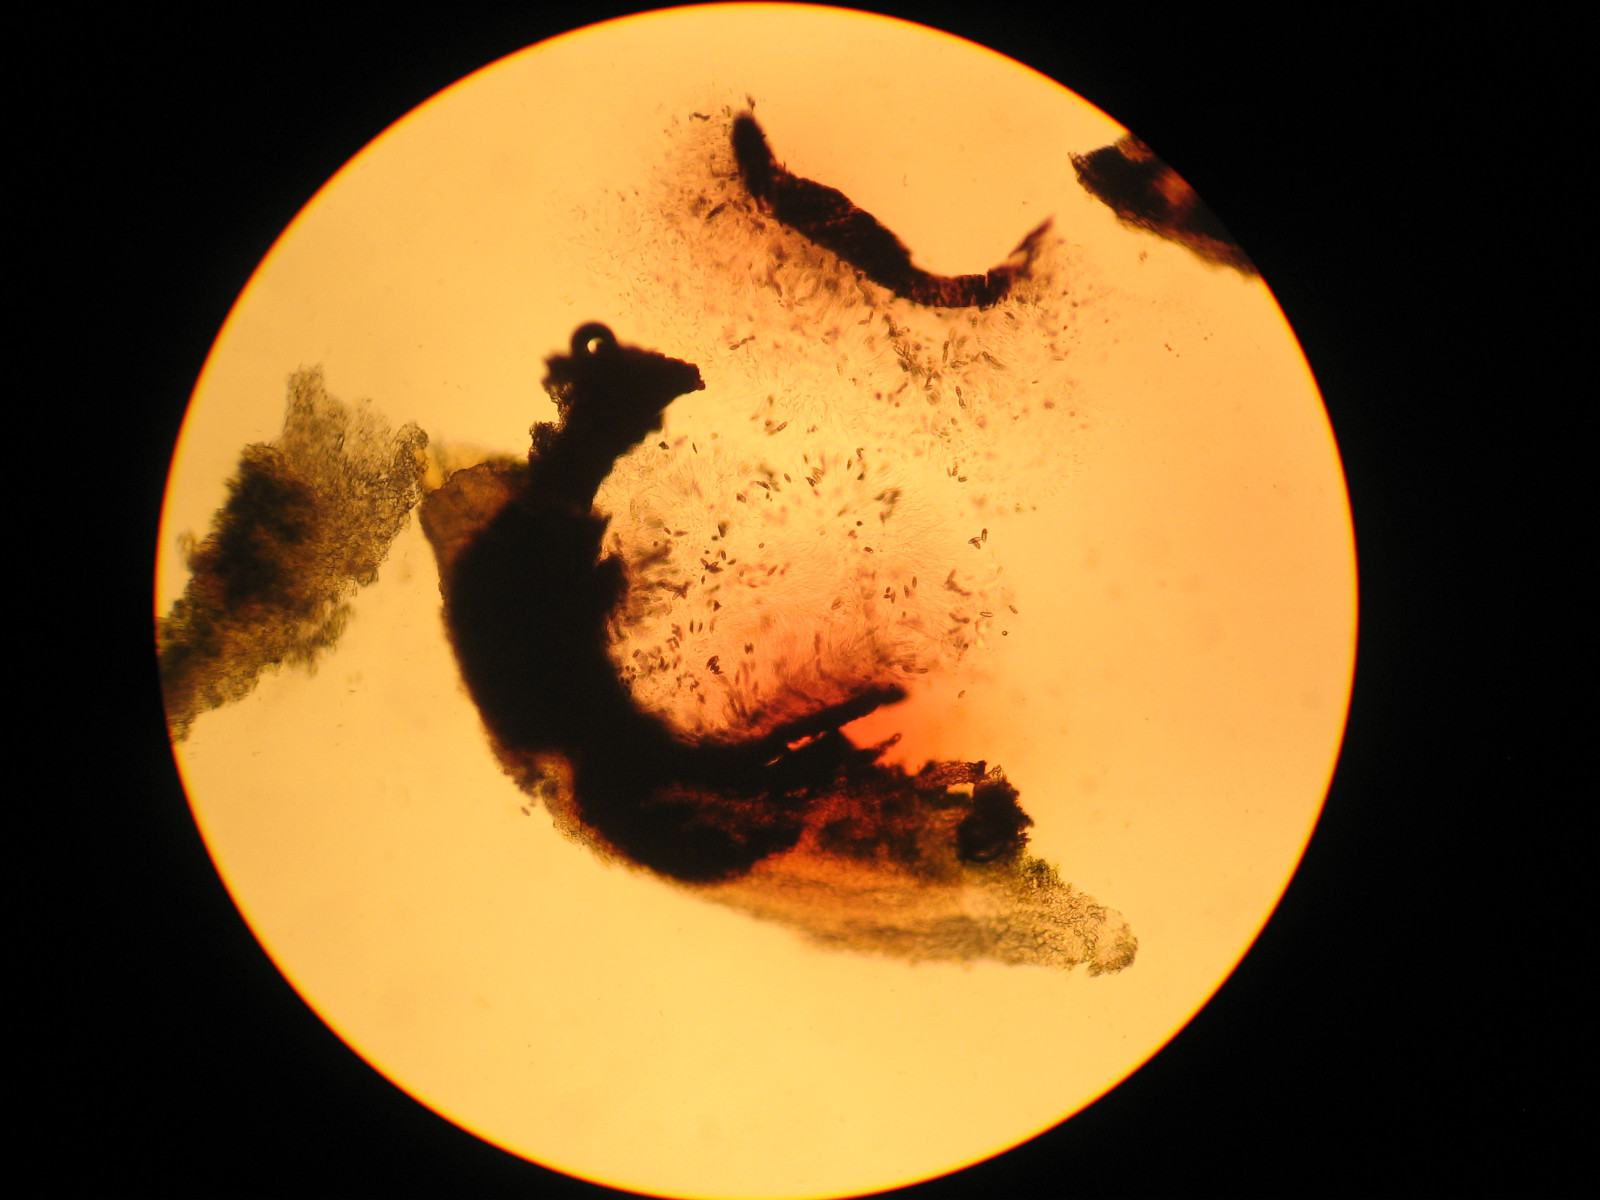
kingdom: Fungi
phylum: Ascomycota
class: Eurotiomycetes
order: Pyrenulales
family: Pyrenulaceae
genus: Pyrenula
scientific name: Pyrenula nitida
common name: glinsende kernelav
